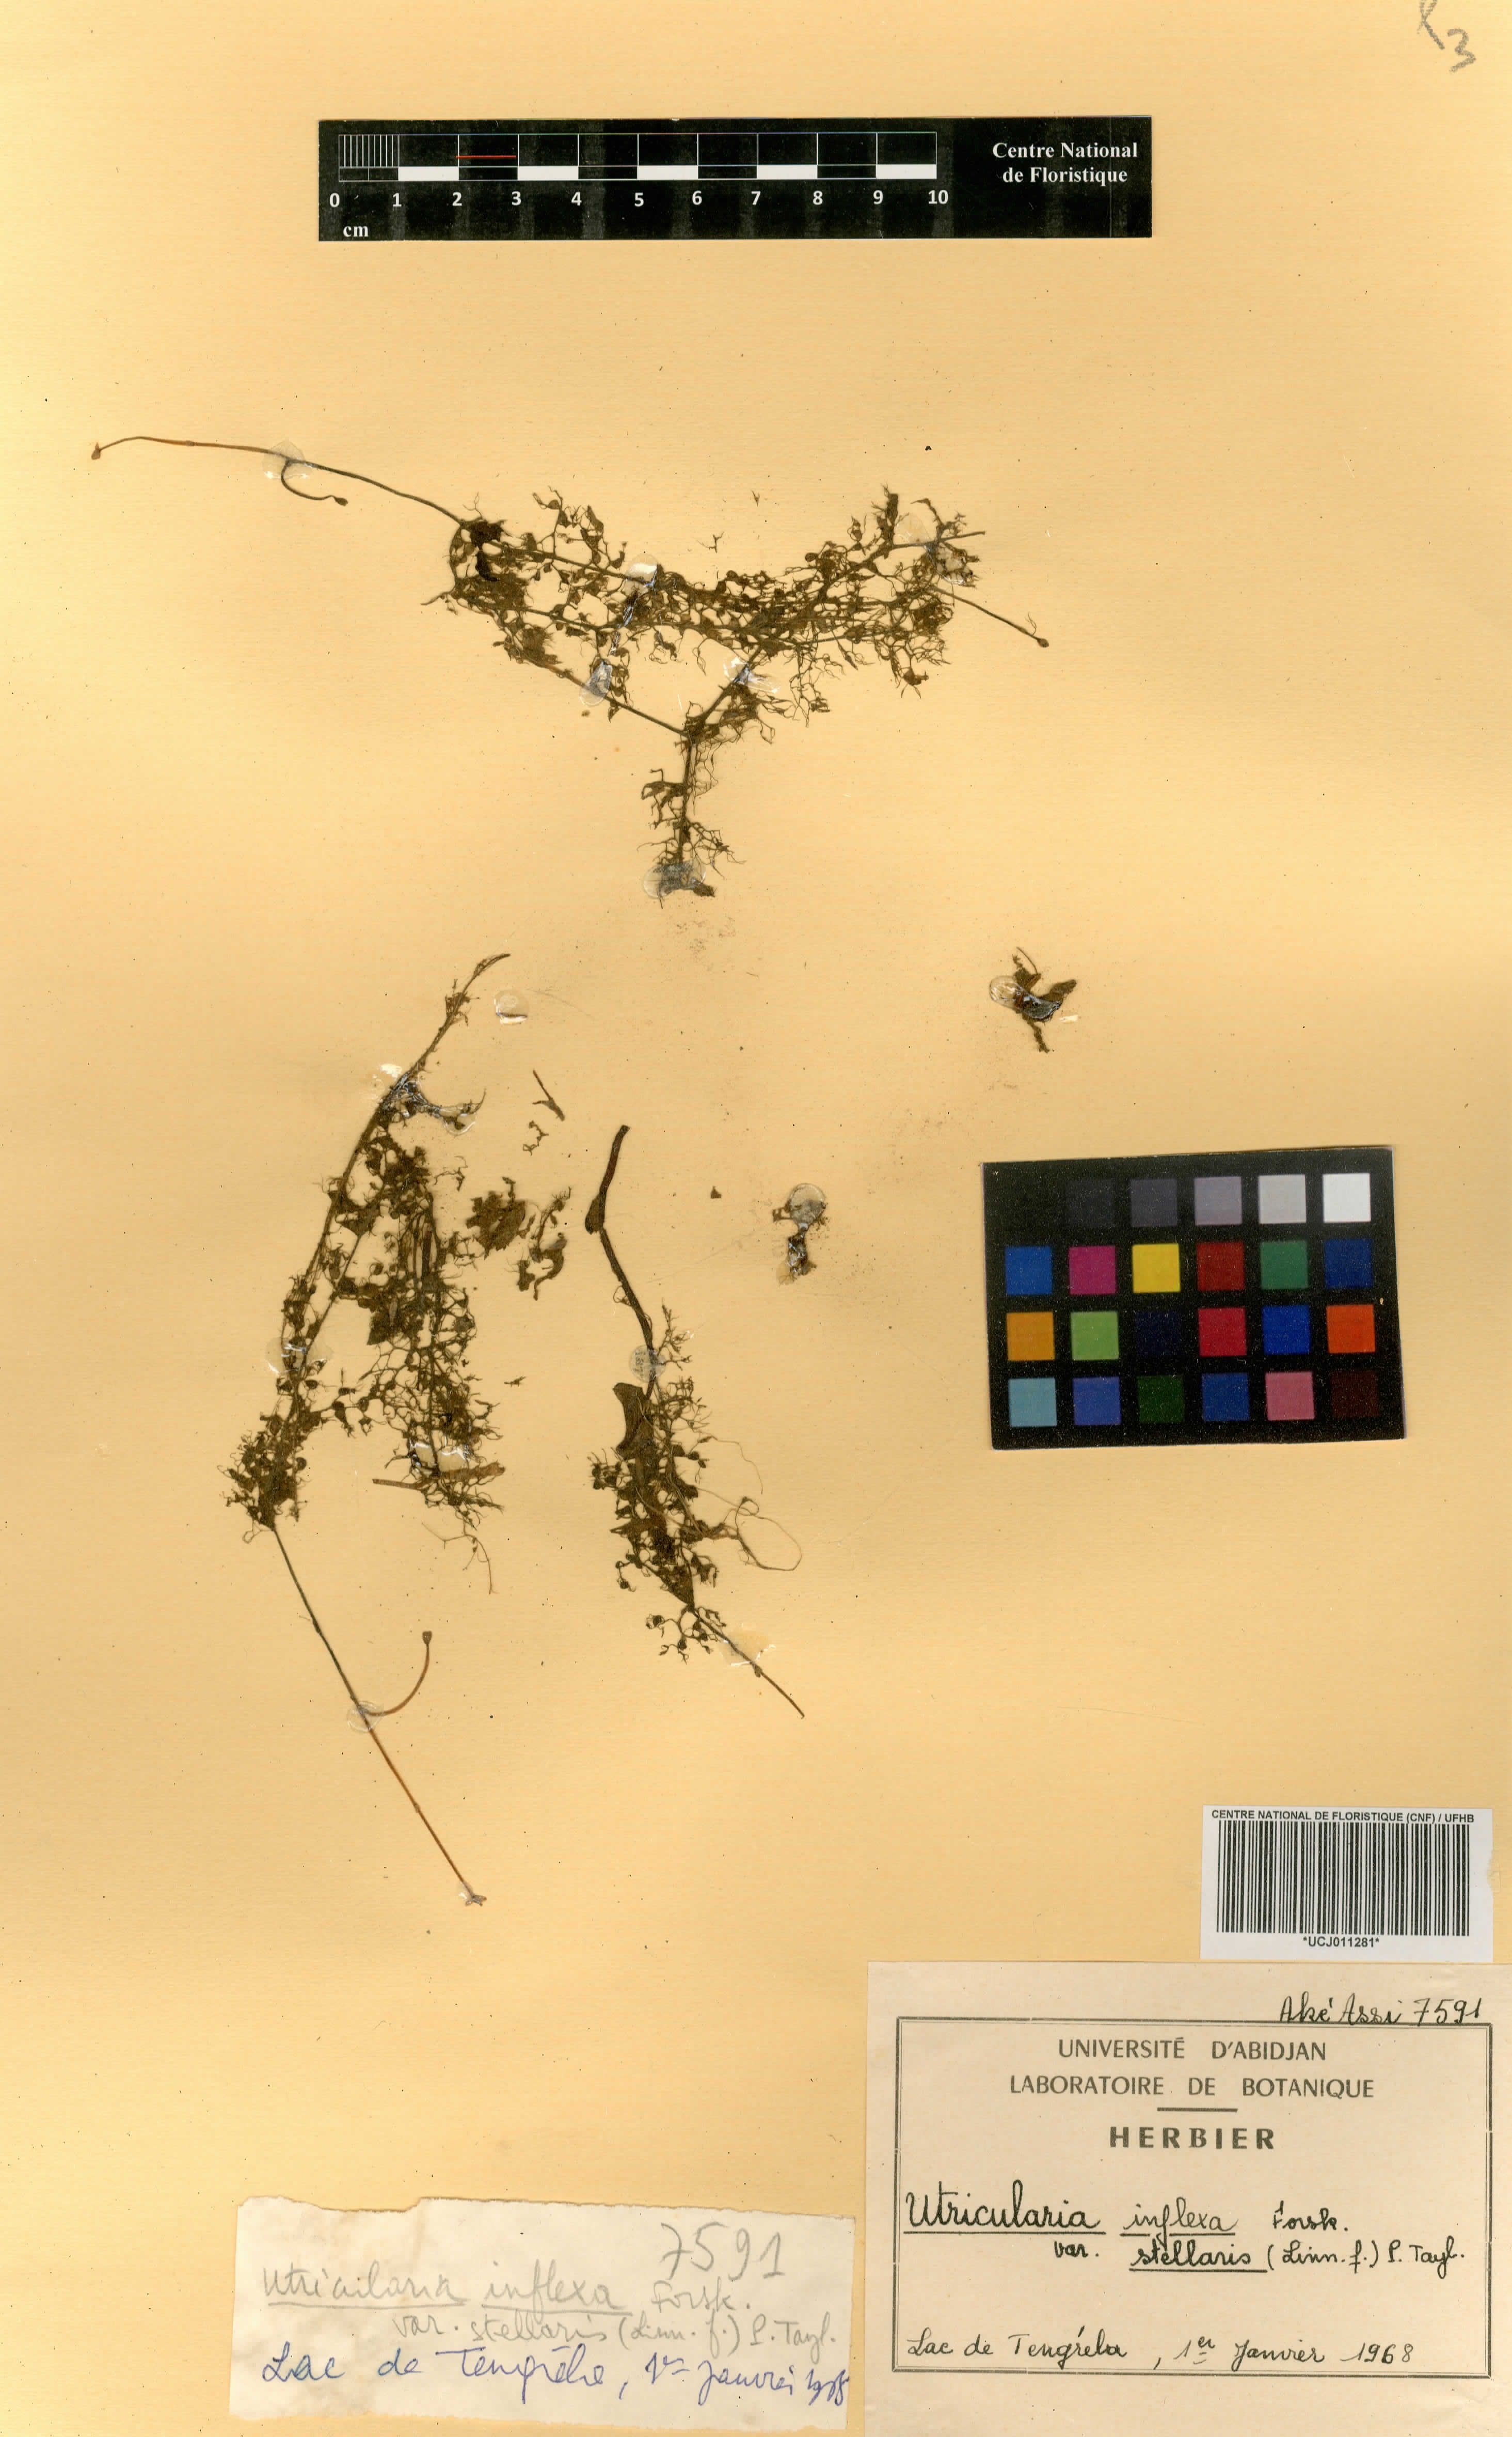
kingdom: Plantae
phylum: Tracheophyta
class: Magnoliopsida
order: Lamiales
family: Lentibulariaceae
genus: Utricularia
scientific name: Utricularia micropetala
